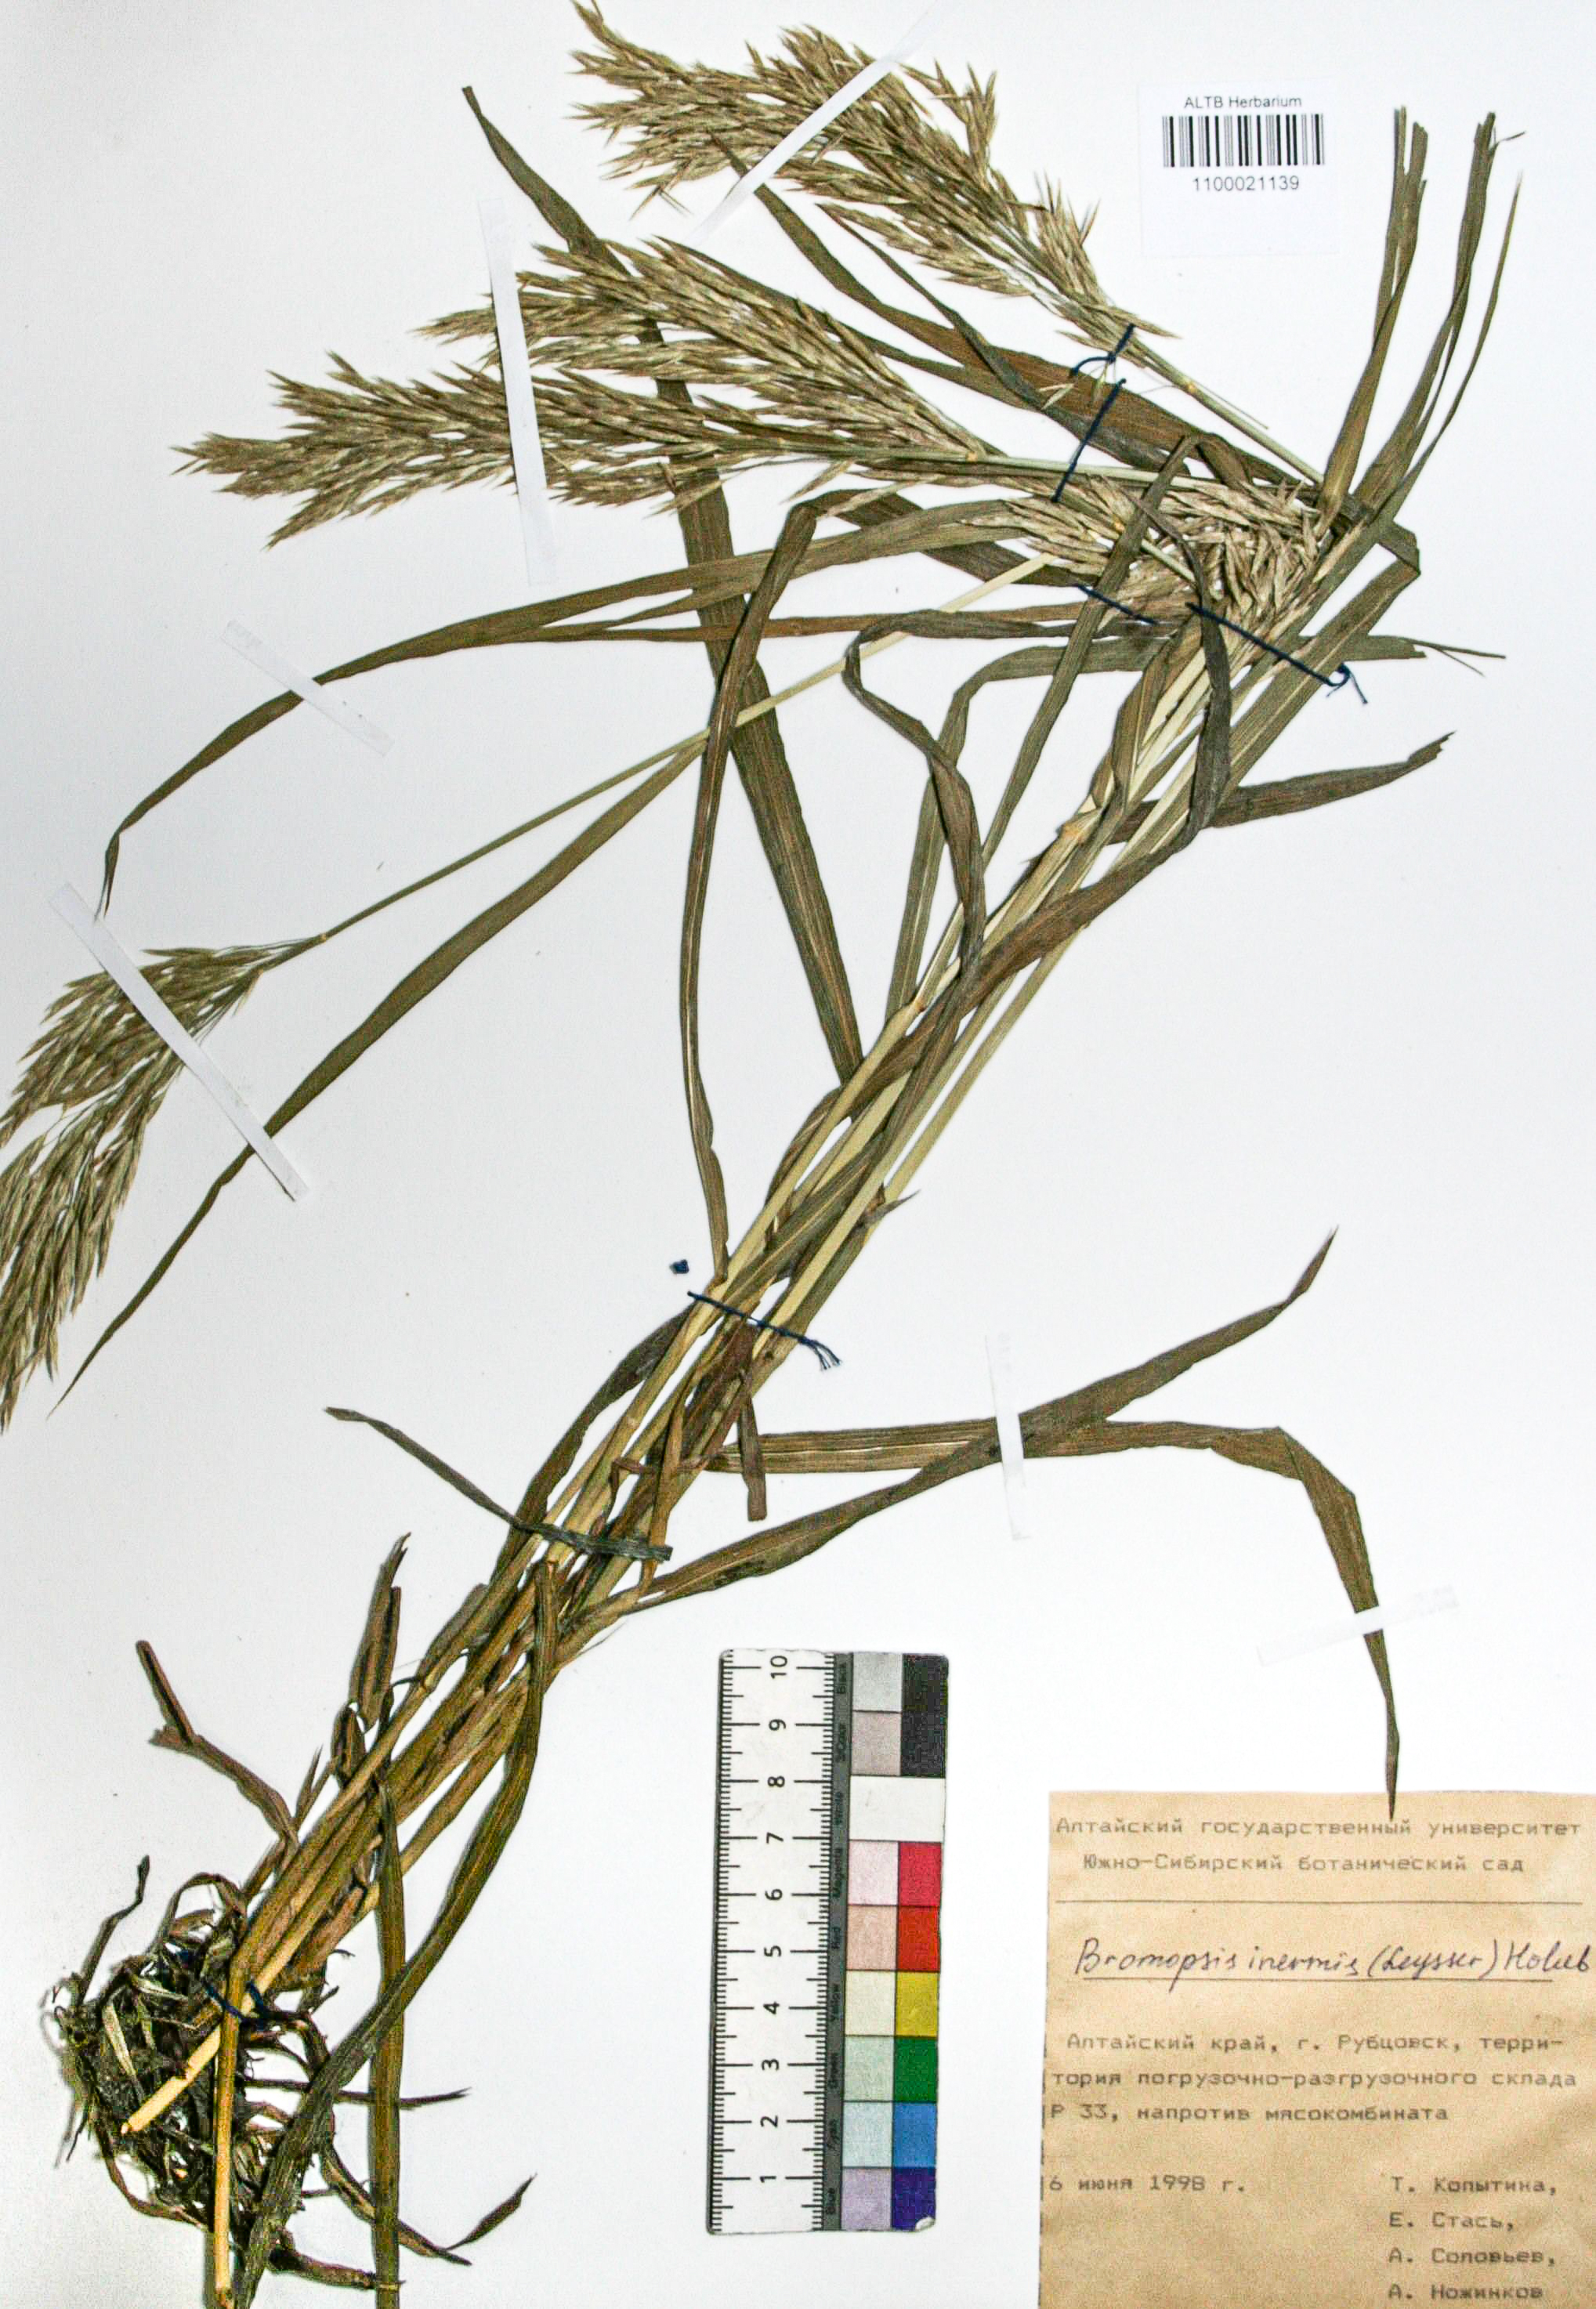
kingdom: Plantae
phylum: Tracheophyta
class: Liliopsida
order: Poales
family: Poaceae
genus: Bromus
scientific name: Bromus inermis
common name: Smooth brome
